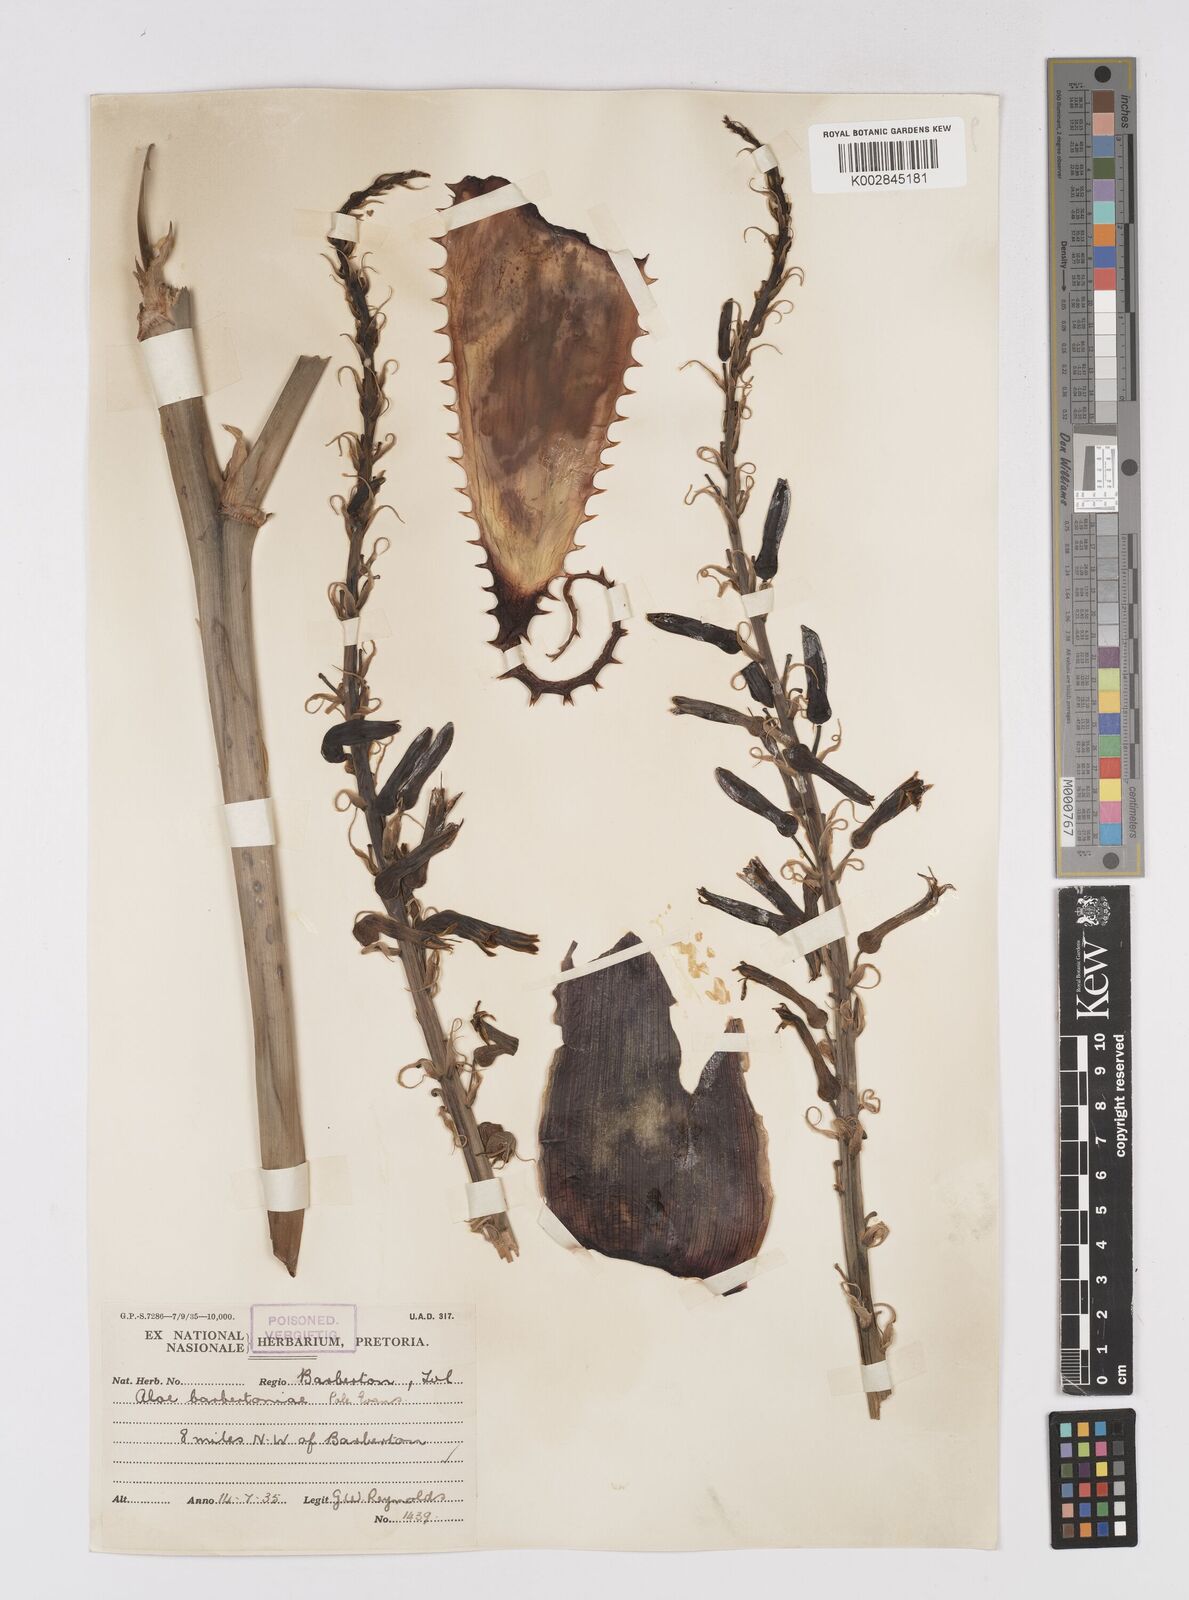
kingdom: Plantae
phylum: Tracheophyta
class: Liliopsida
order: Asparagales
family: Asphodelaceae
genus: Aloe
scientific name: Aloe davyana
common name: Spotted aloe
